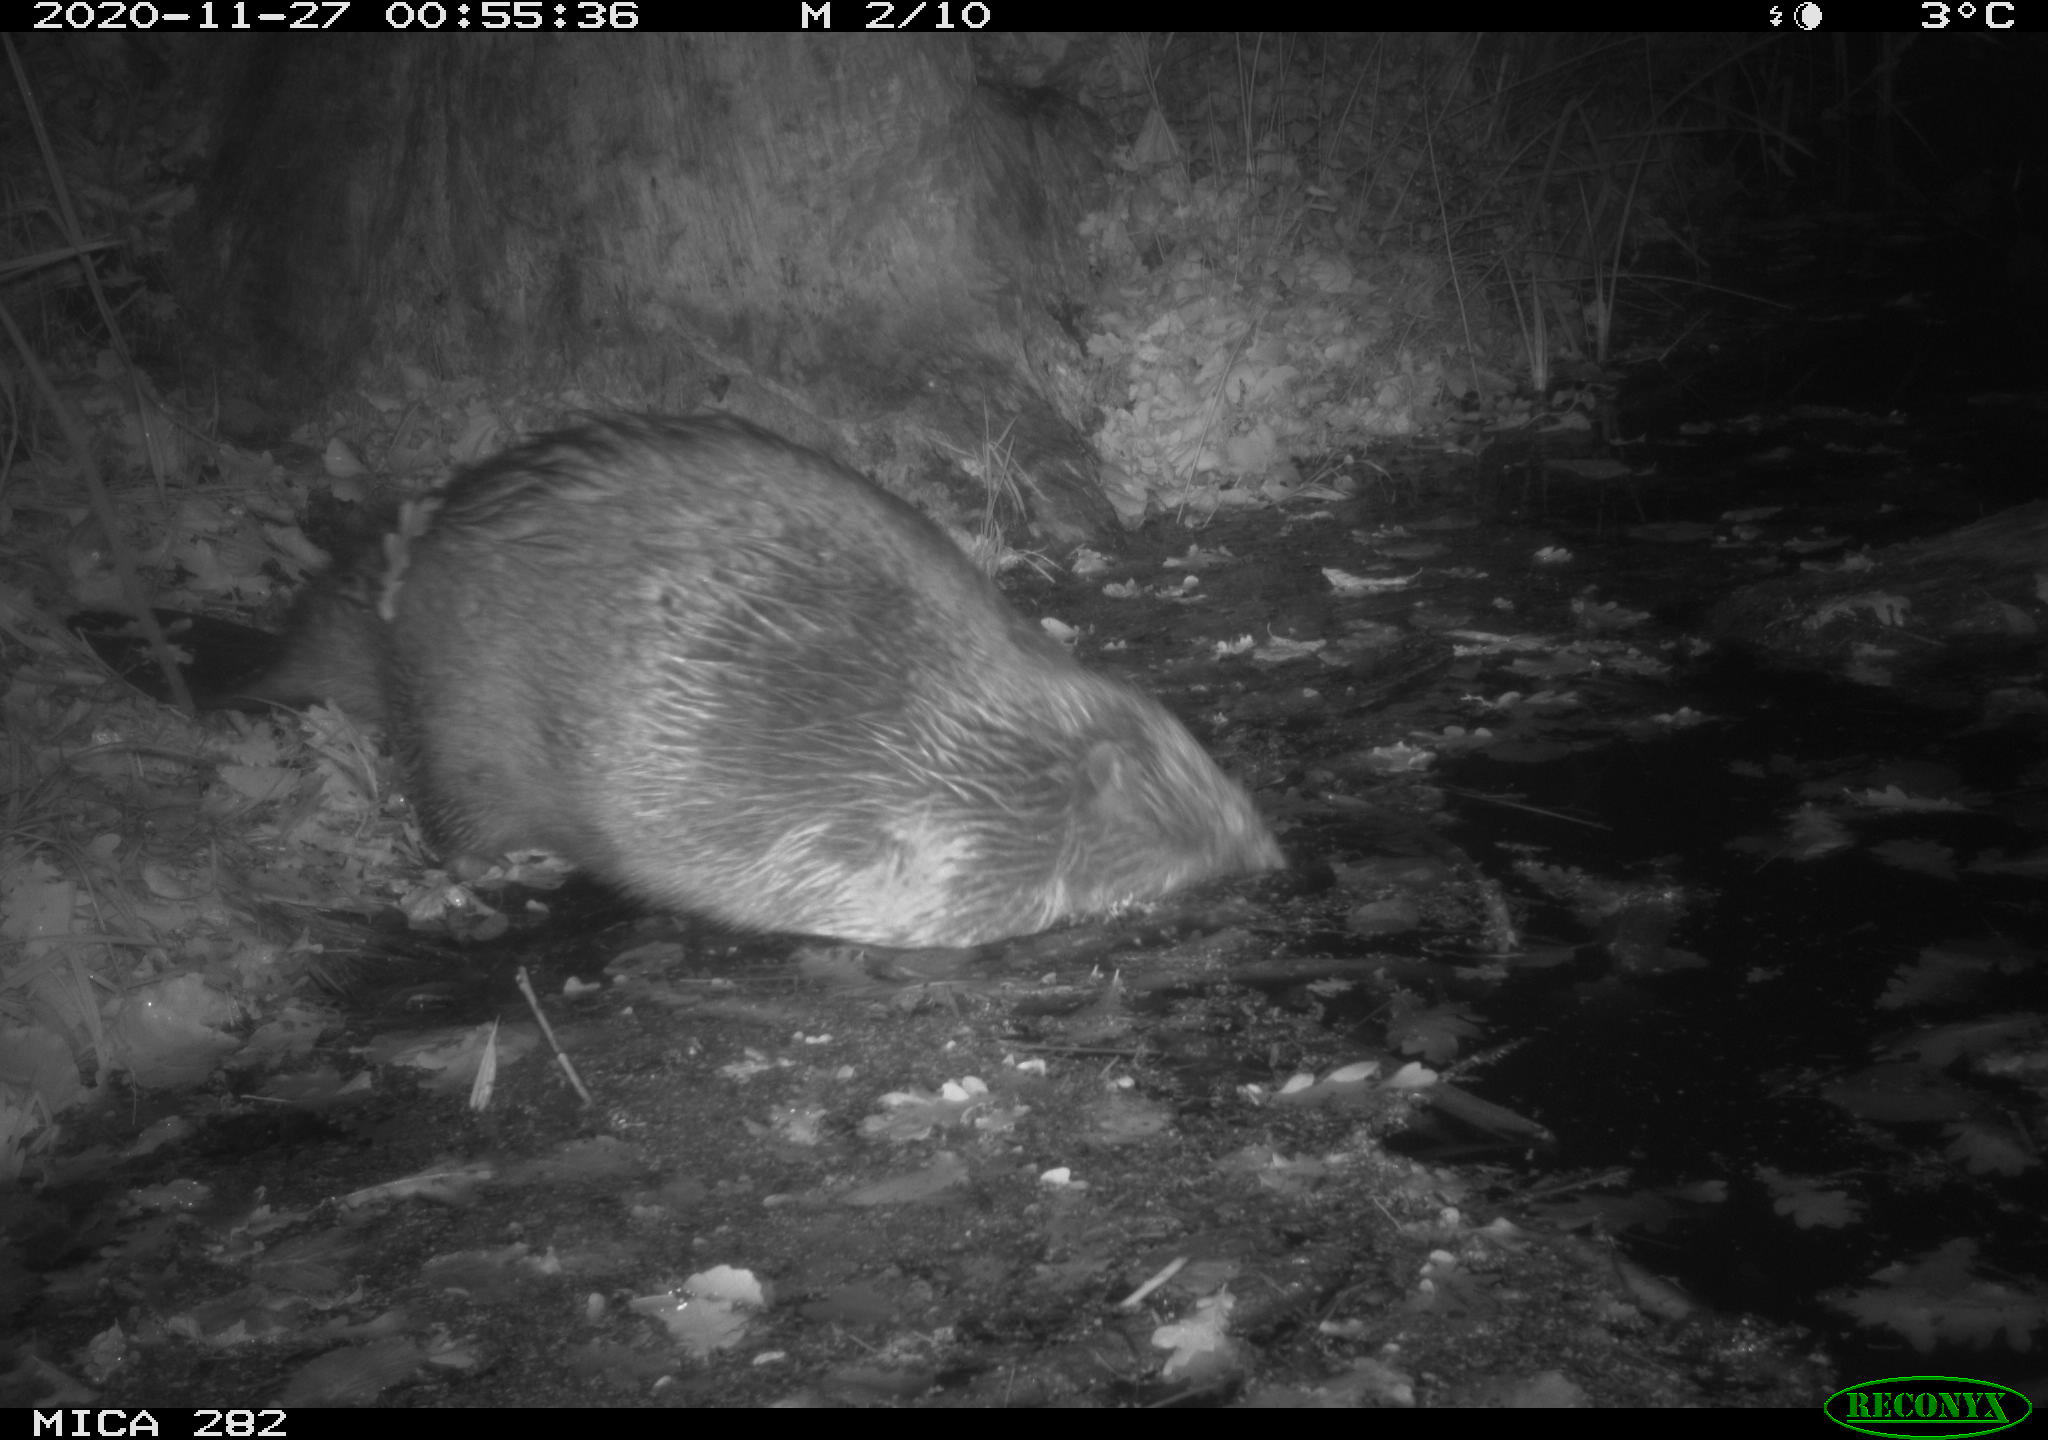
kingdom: Animalia
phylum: Chordata
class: Mammalia
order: Rodentia
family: Castoridae
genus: Castor
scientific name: Castor fiber
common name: Eurasian beaver
